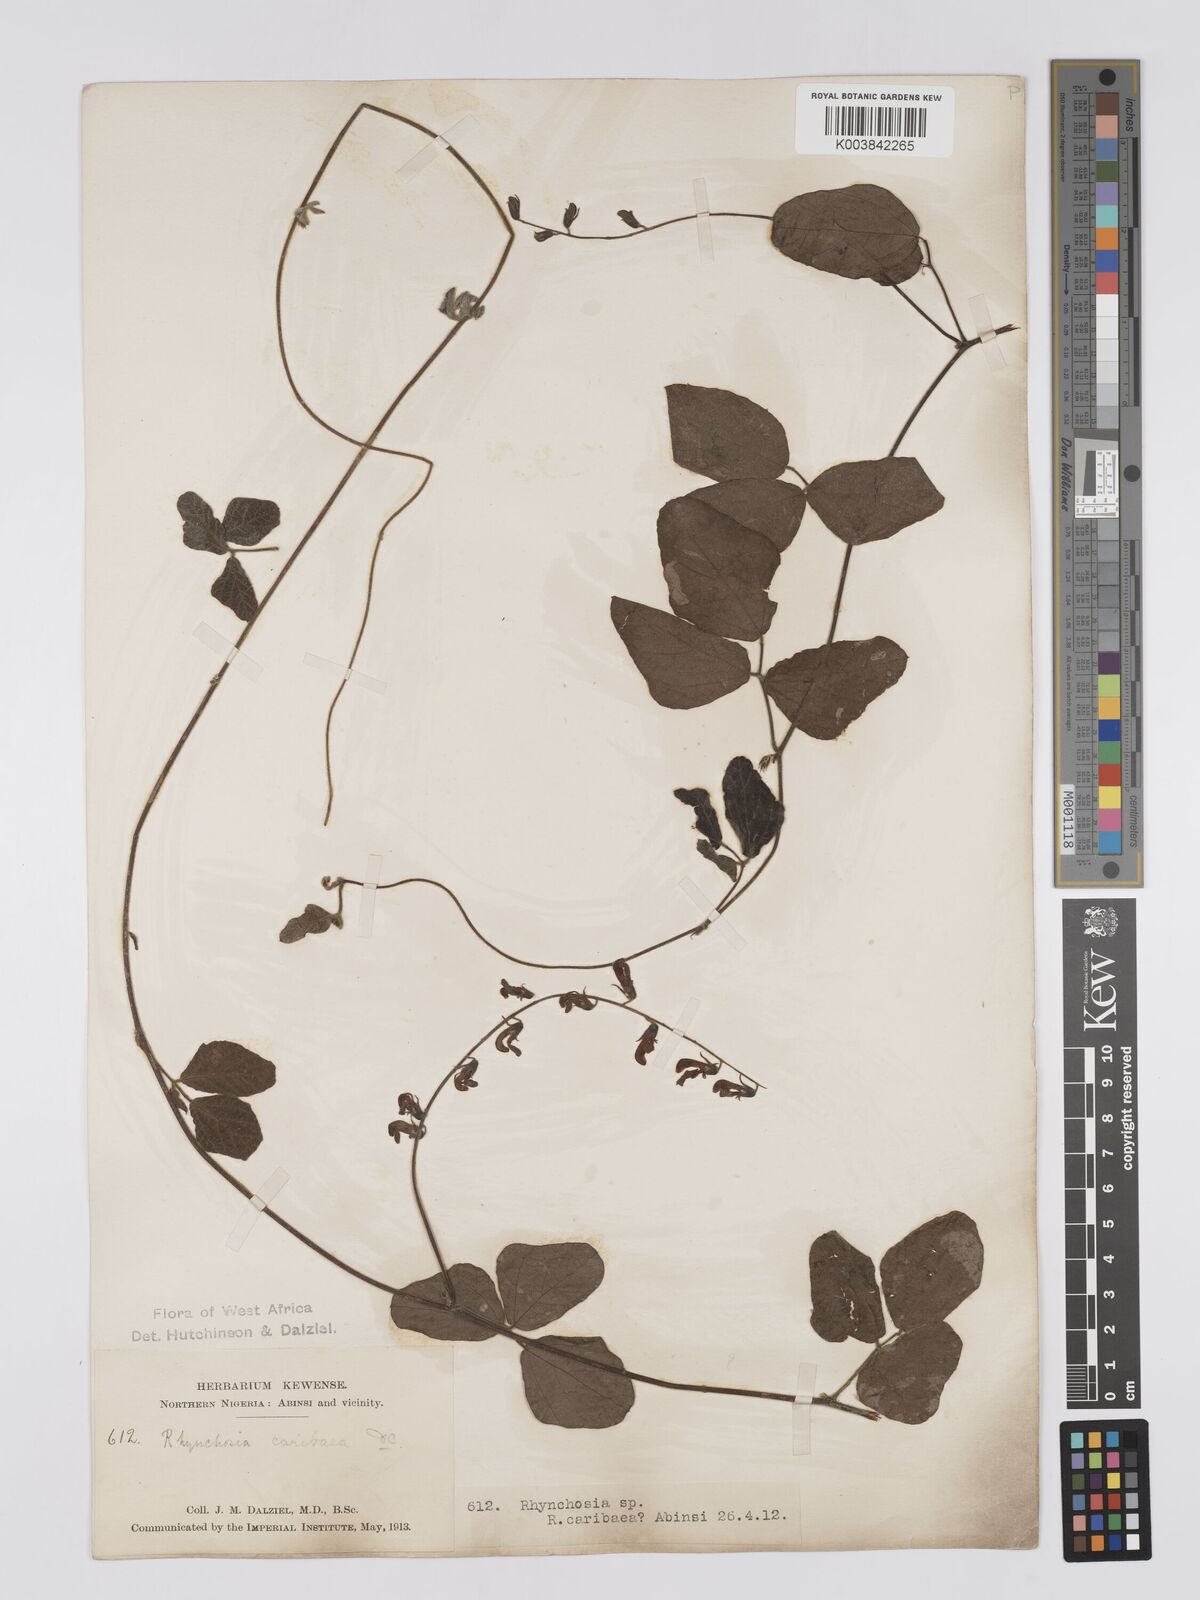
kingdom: Plantae
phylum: Tracheophyta
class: Magnoliopsida
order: Fabales
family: Fabaceae
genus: Rhynchosia
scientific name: Rhynchosia sublobata
